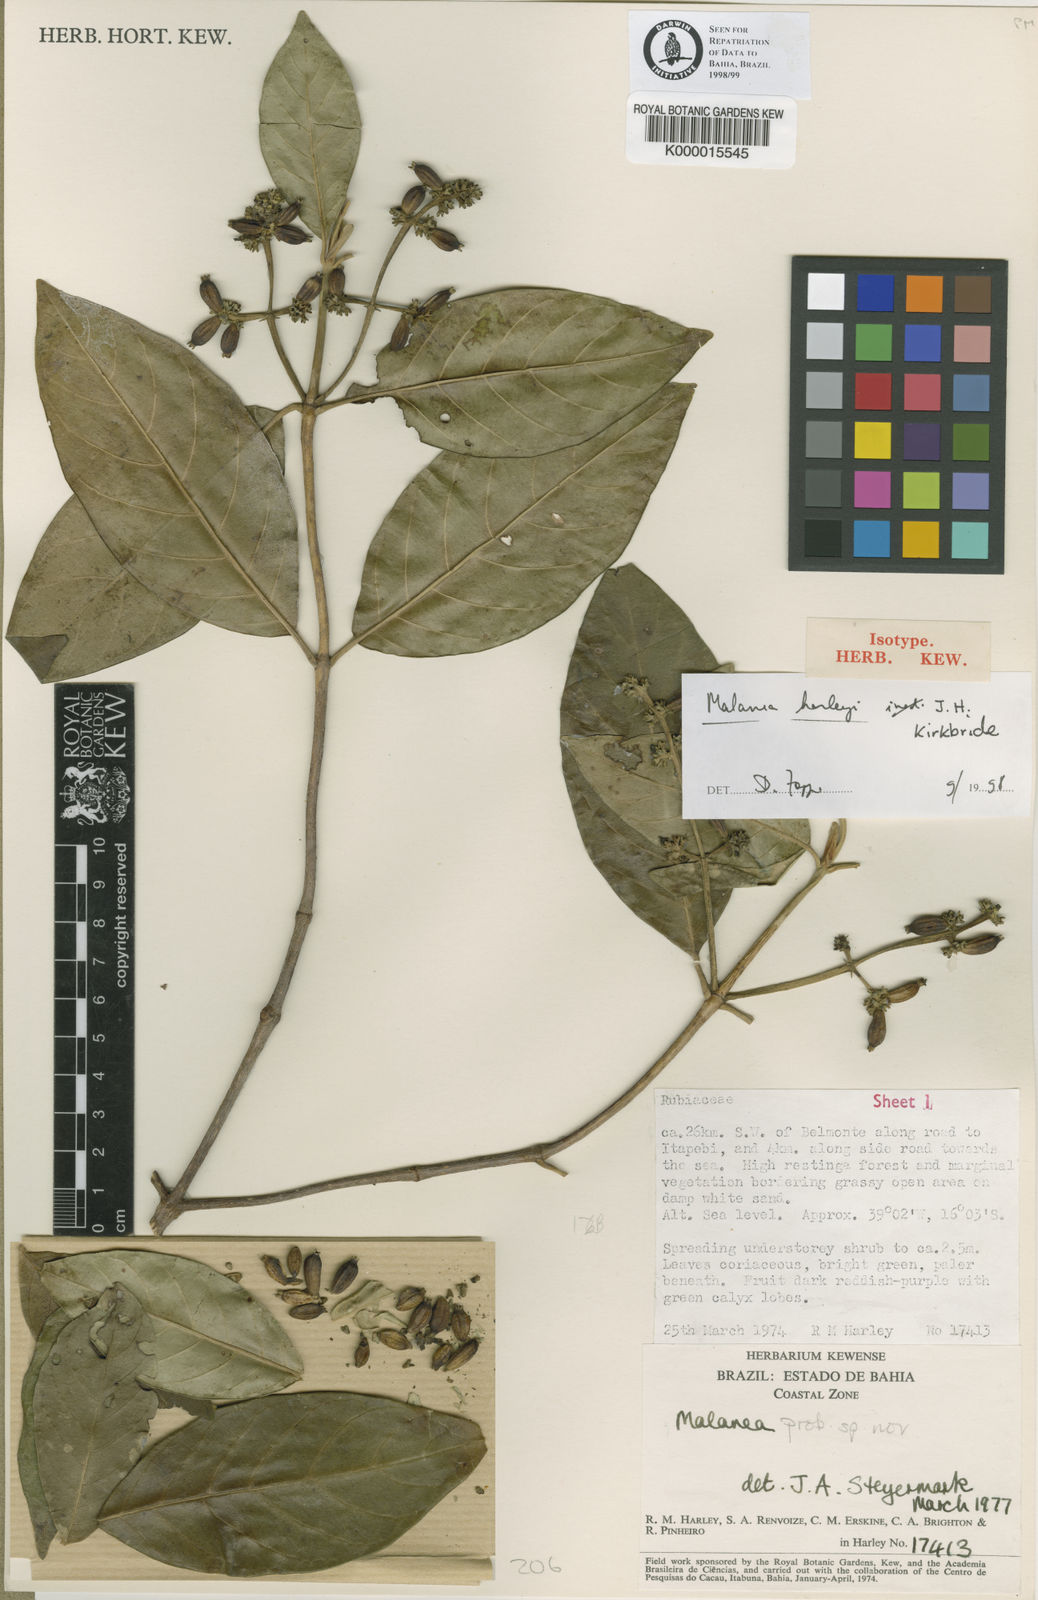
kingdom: Plantae
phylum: Tracheophyta
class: Magnoliopsida
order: Gentianales
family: Rubiaceae
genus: Malanea
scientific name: Malanea harleyi
